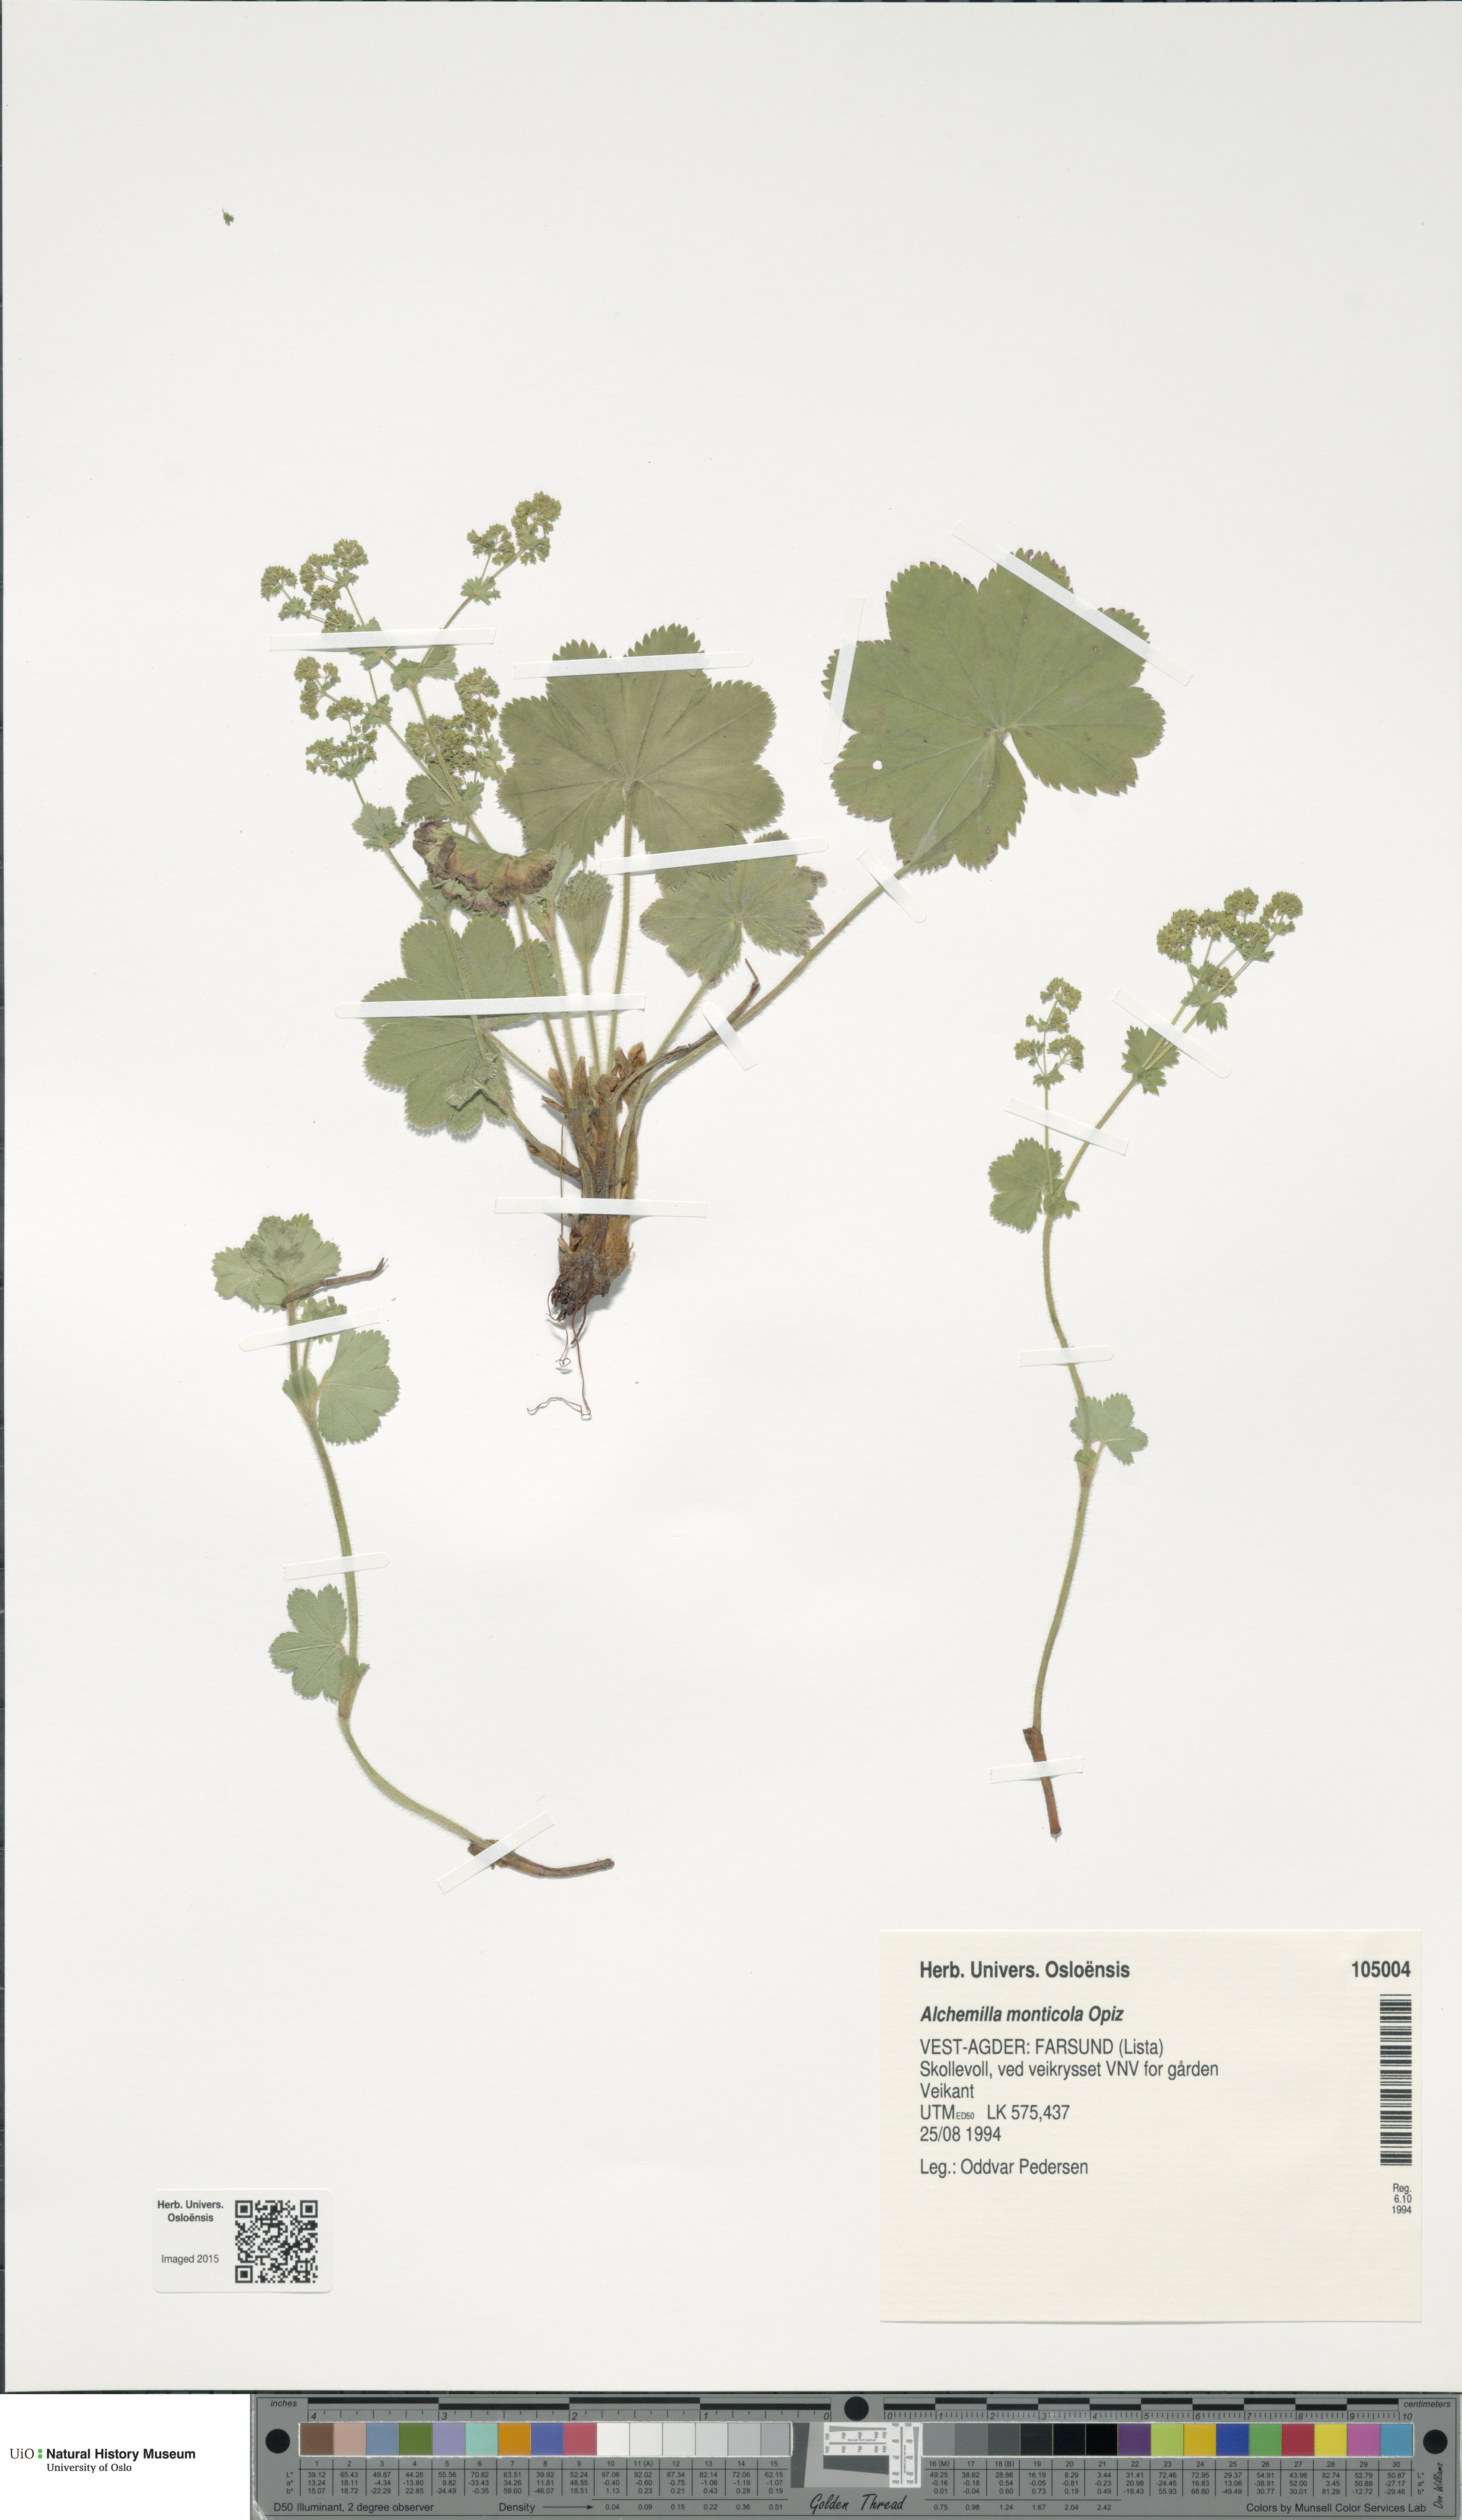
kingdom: Plantae
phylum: Tracheophyta
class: Magnoliopsida
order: Rosales
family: Rosaceae
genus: Alchemilla
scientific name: Alchemilla monticola
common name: Hairy lady's mantle
